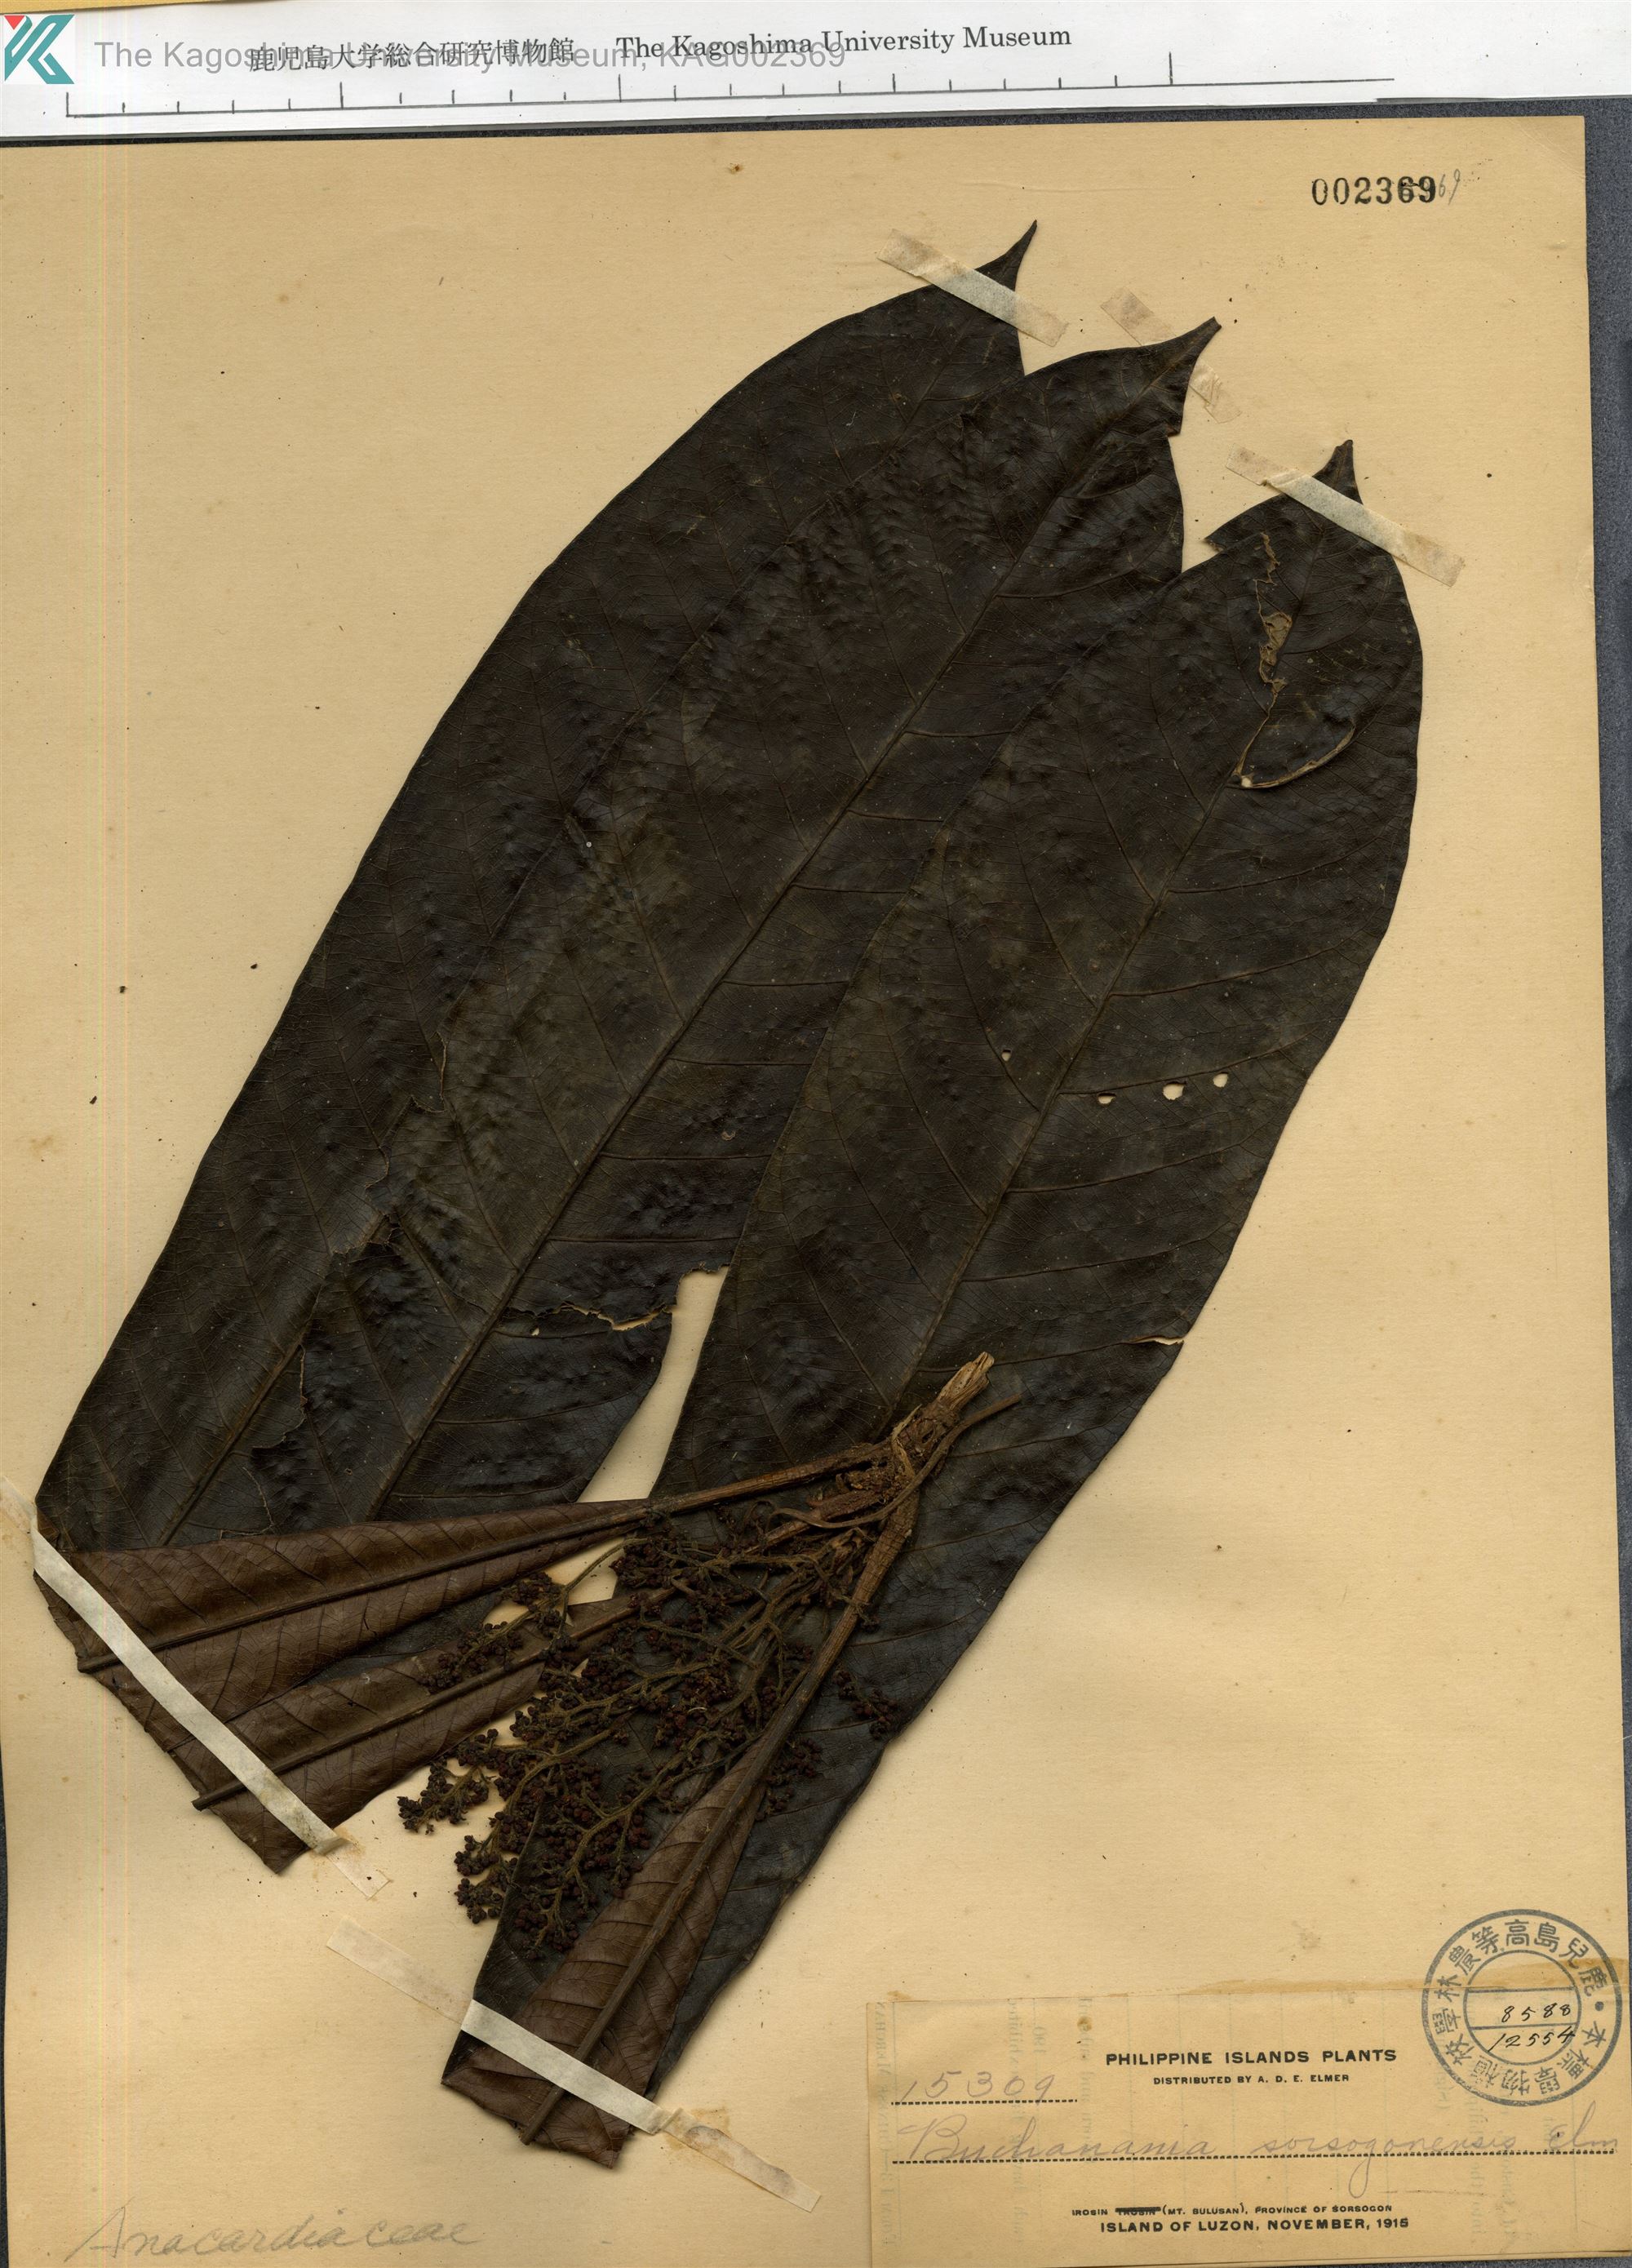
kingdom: Plantae
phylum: Tracheophyta
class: Magnoliopsida
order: Sapindales
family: Anacardiaceae
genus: Buchanania
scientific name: Buchanania nitida
